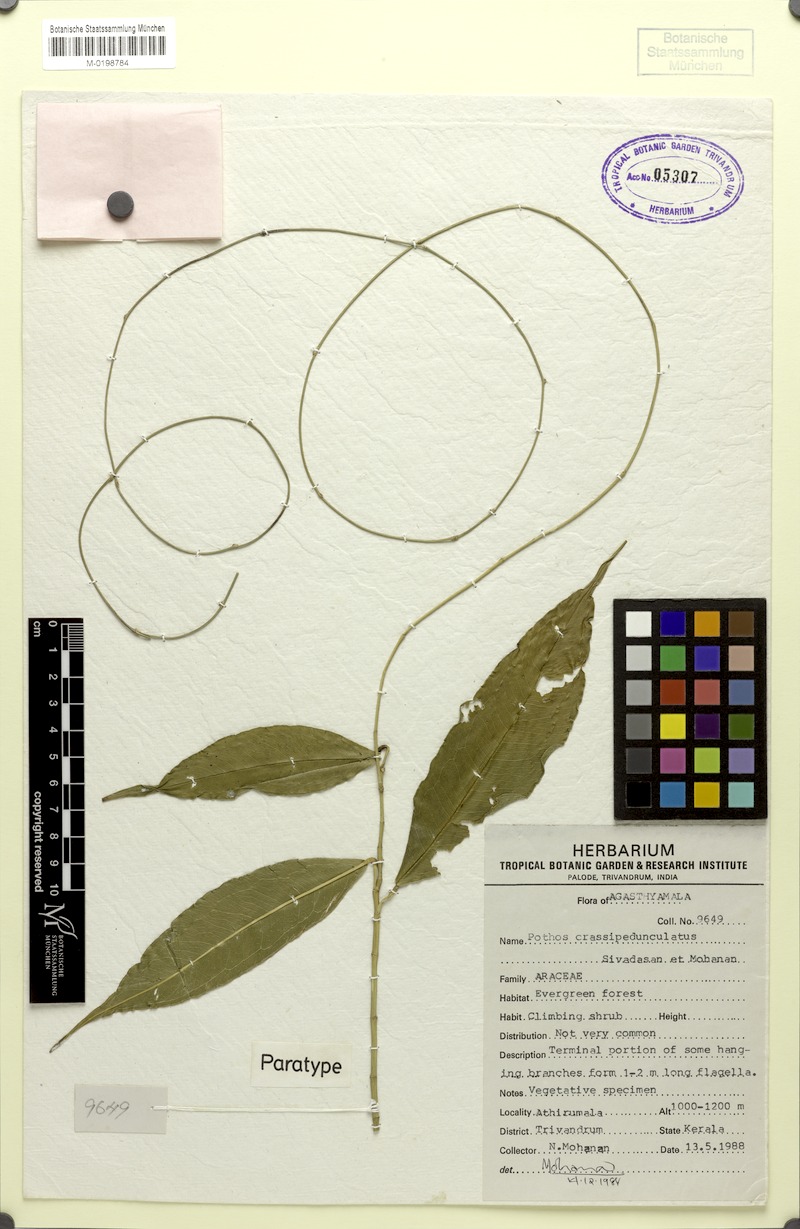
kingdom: Plantae
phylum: Tracheophyta
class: Liliopsida
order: Alismatales
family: Araceae
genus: Pothos
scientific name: Pothos crassipedunculatus
